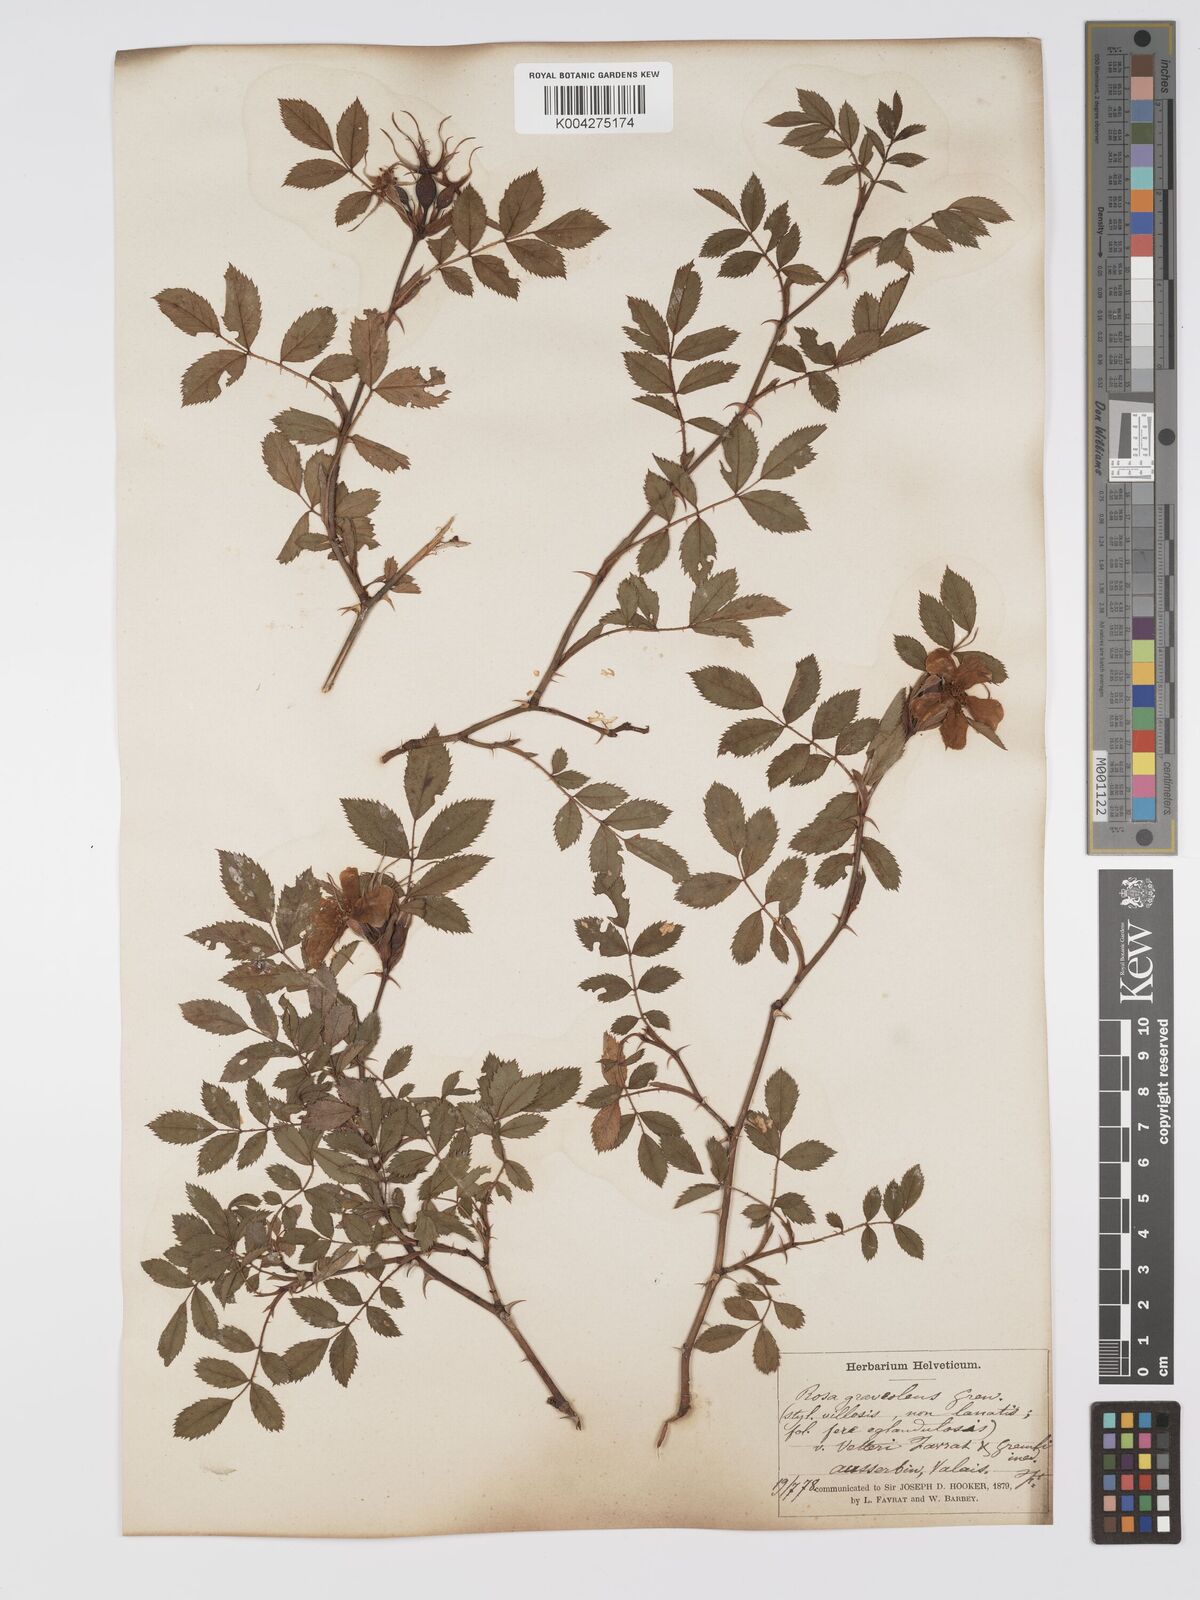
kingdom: Plantae
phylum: Tracheophyta
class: Magnoliopsida
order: Rosales
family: Rosaceae
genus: Rosa
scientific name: Rosa
